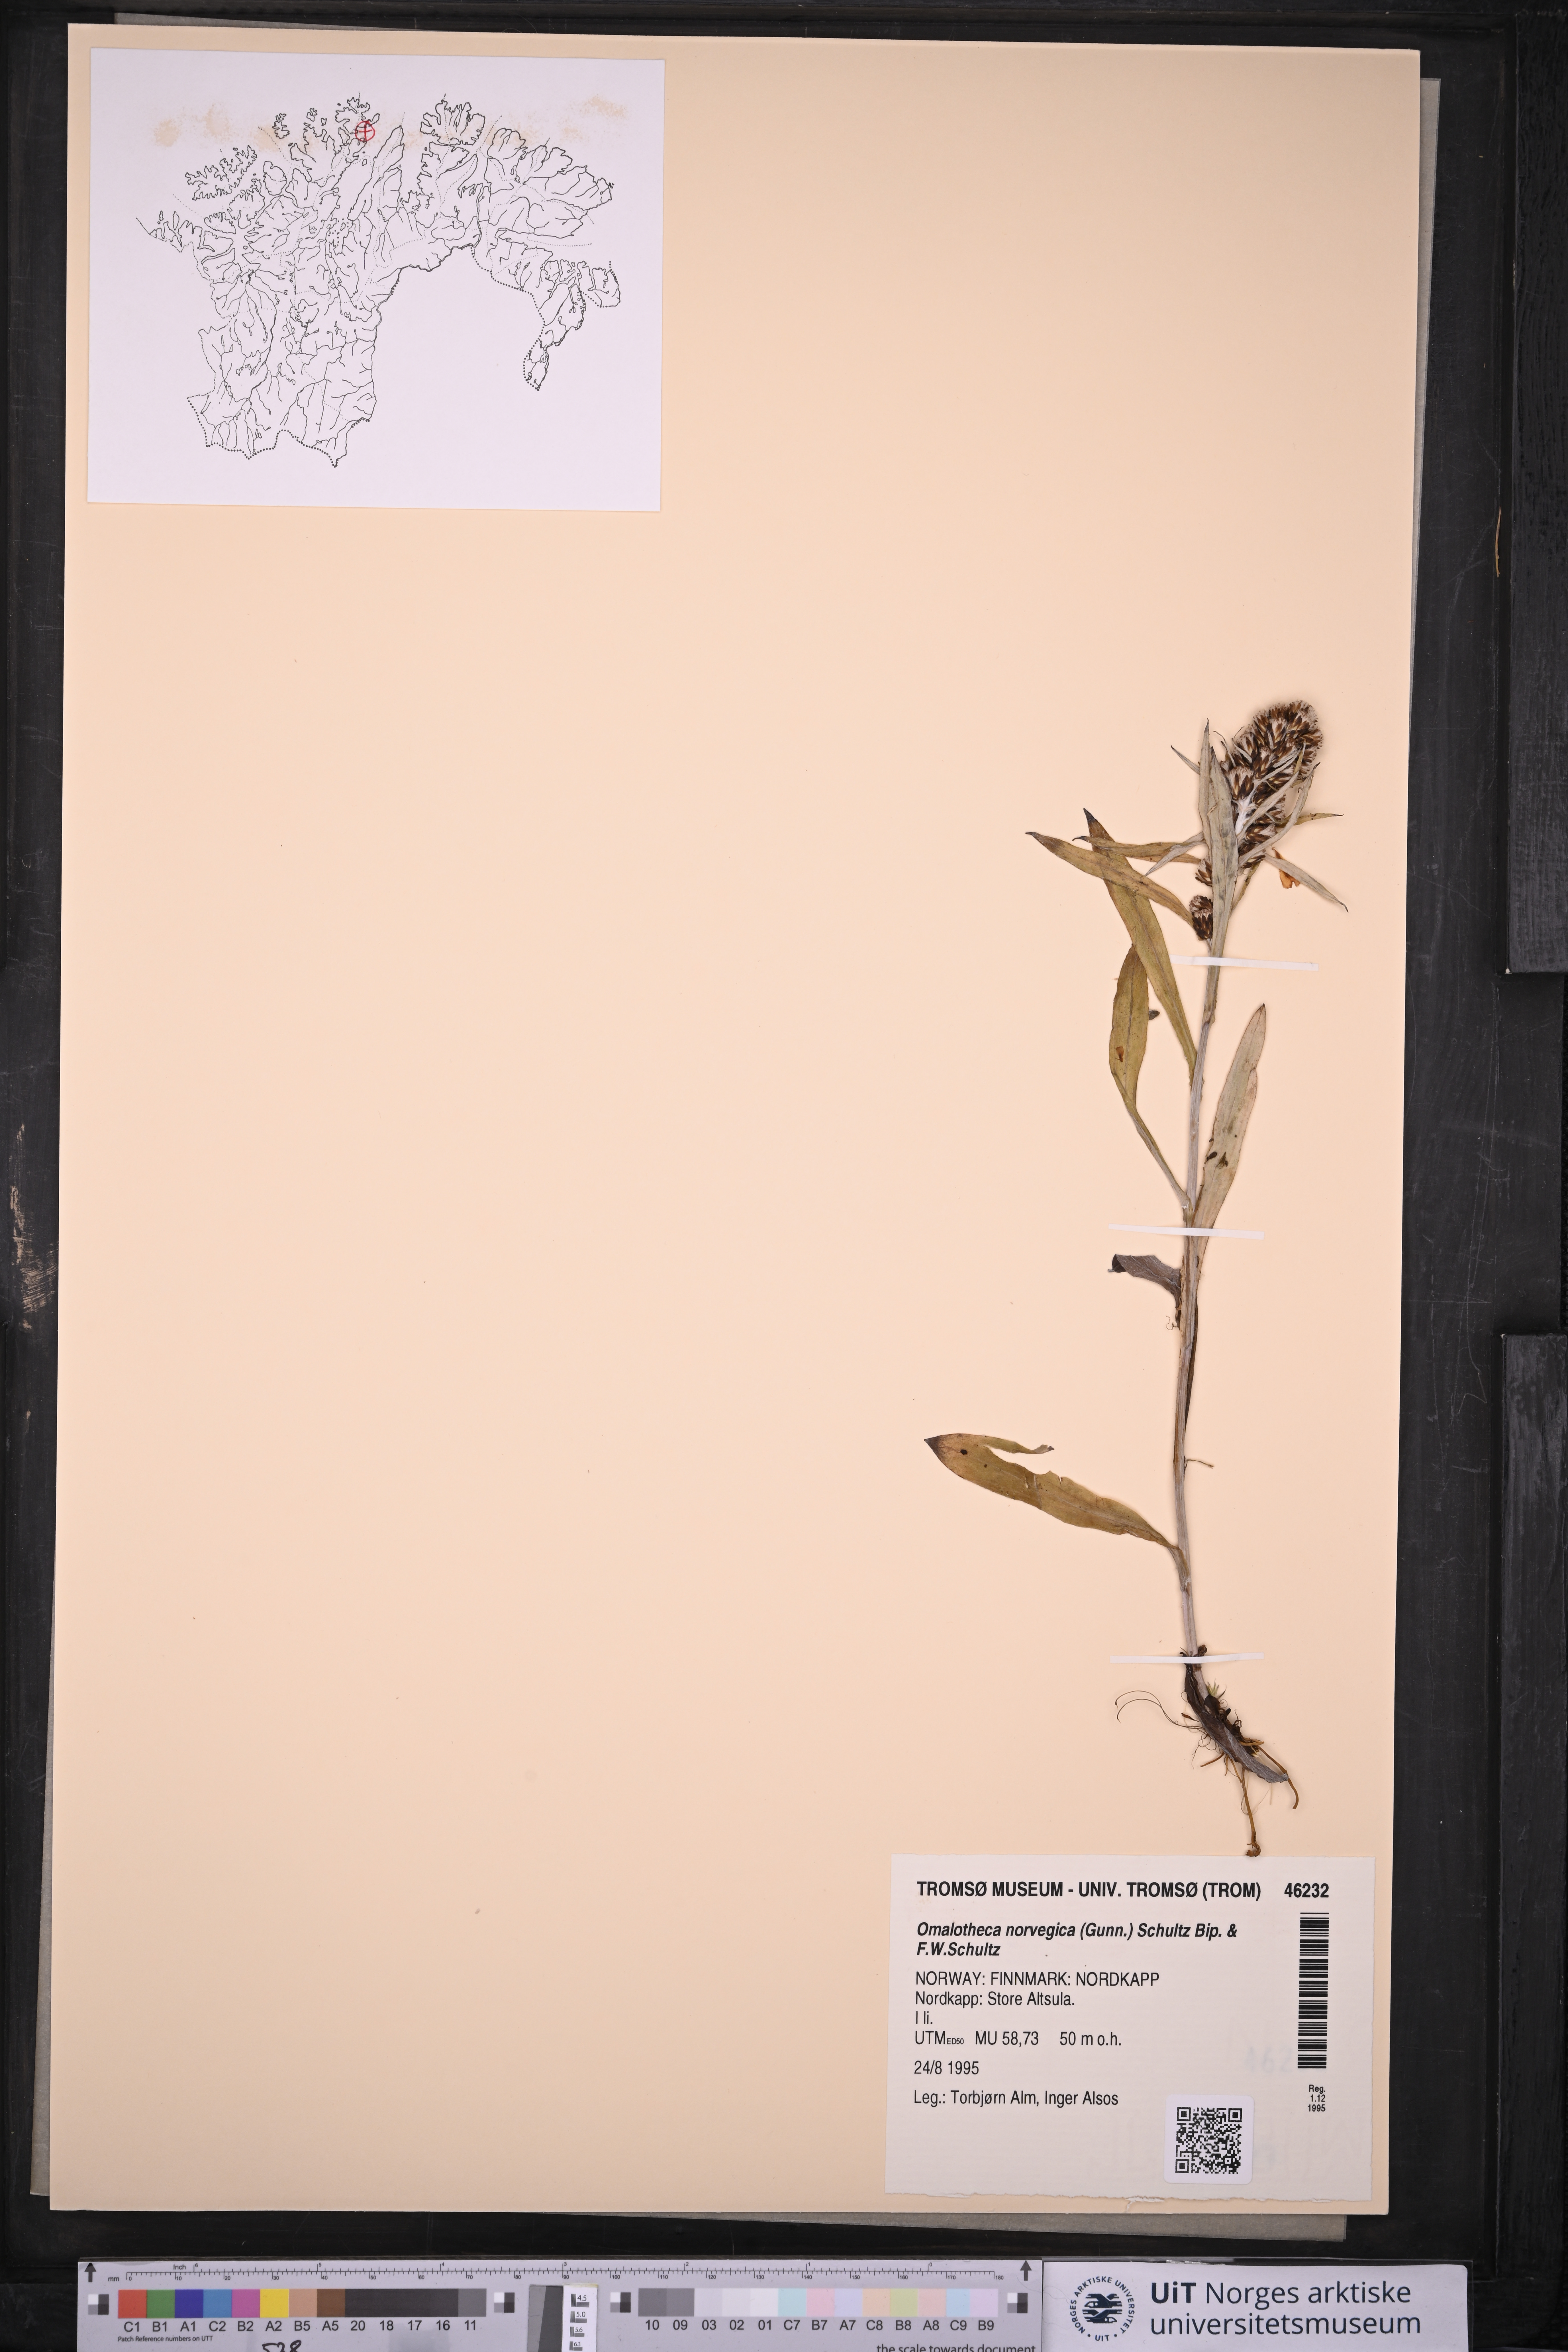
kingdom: Plantae
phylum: Tracheophyta
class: Magnoliopsida
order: Asterales
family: Asteraceae
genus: Omalotheca
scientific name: Omalotheca norvegica
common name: Norwegian arctic-cudweed
